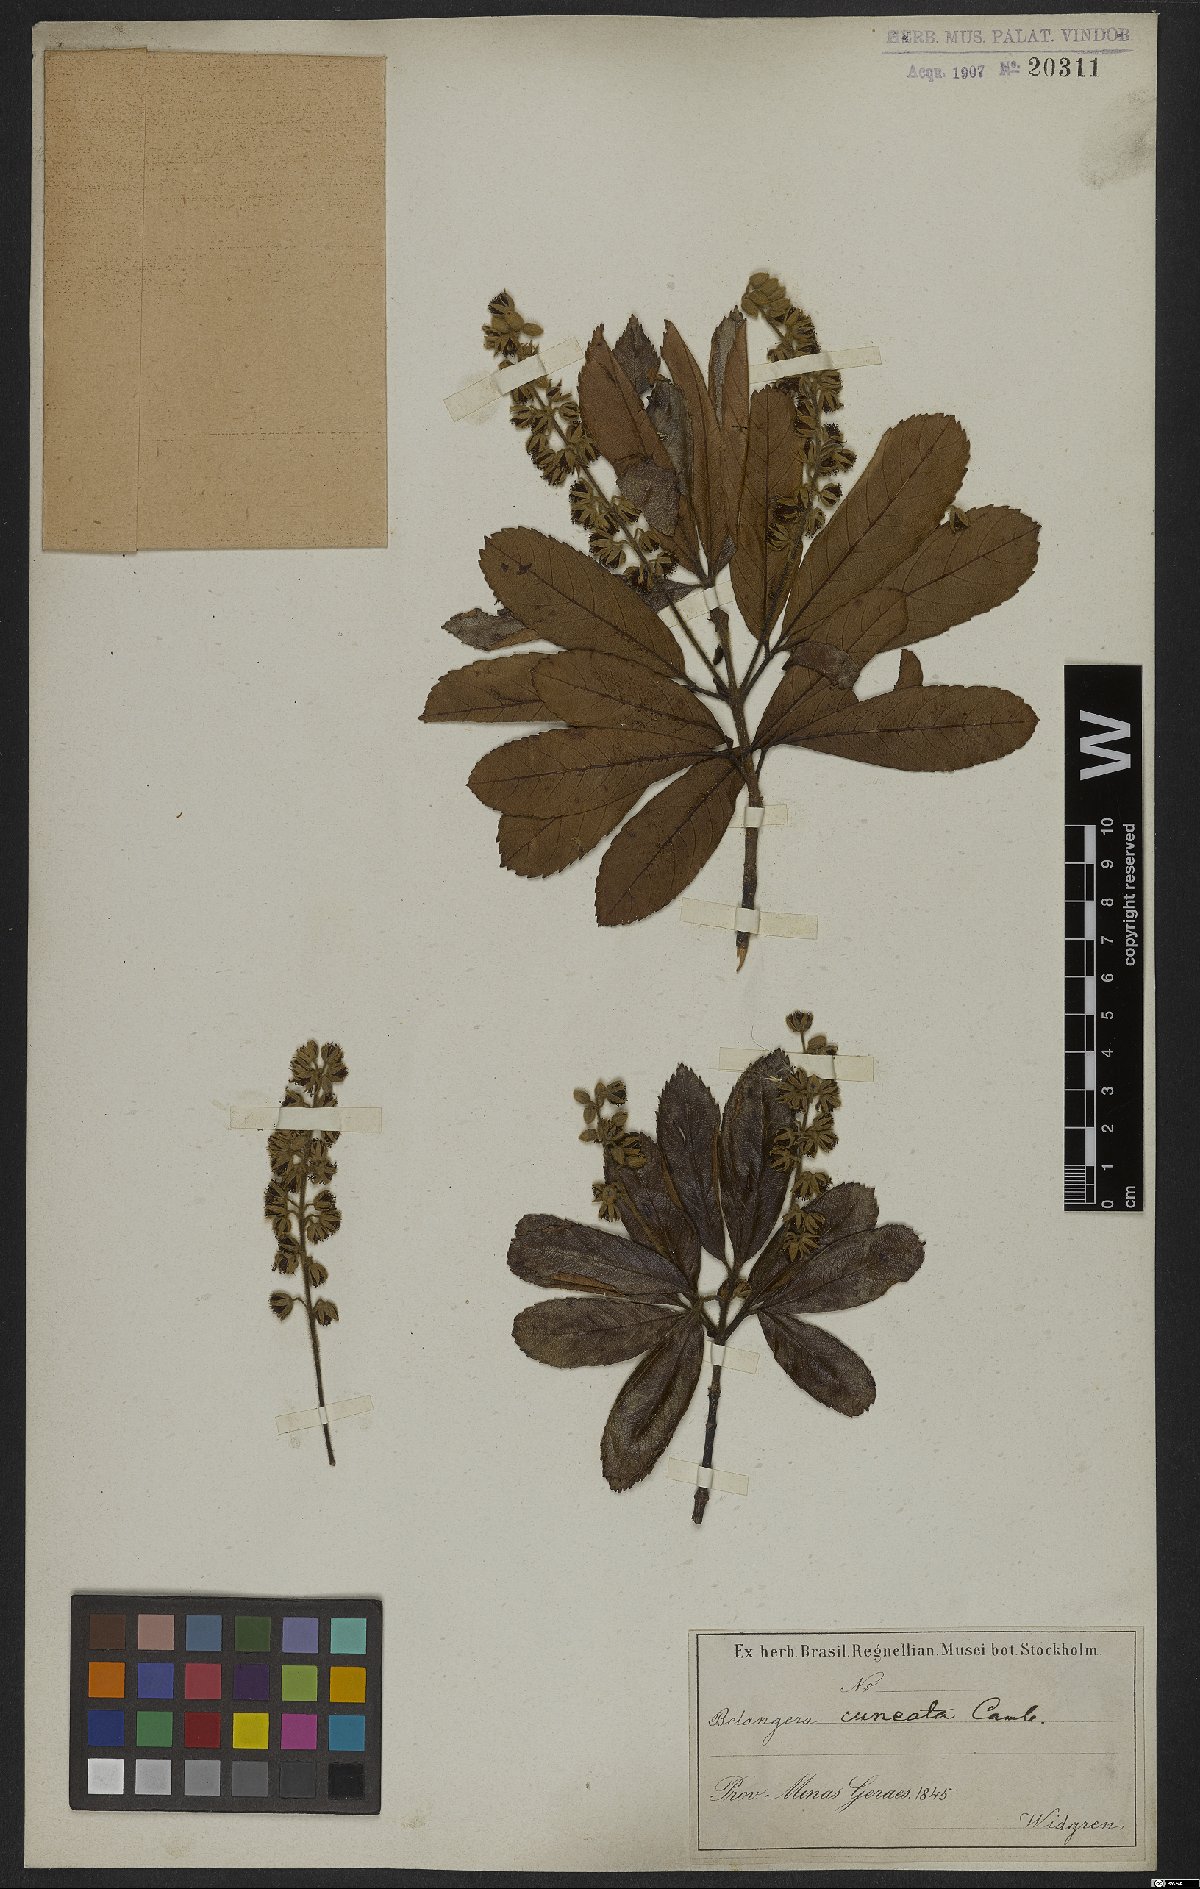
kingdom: Plantae
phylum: Tracheophyta
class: Magnoliopsida
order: Oxalidales
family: Cunoniaceae
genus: Lamanonia
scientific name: Lamanonia cuneata
